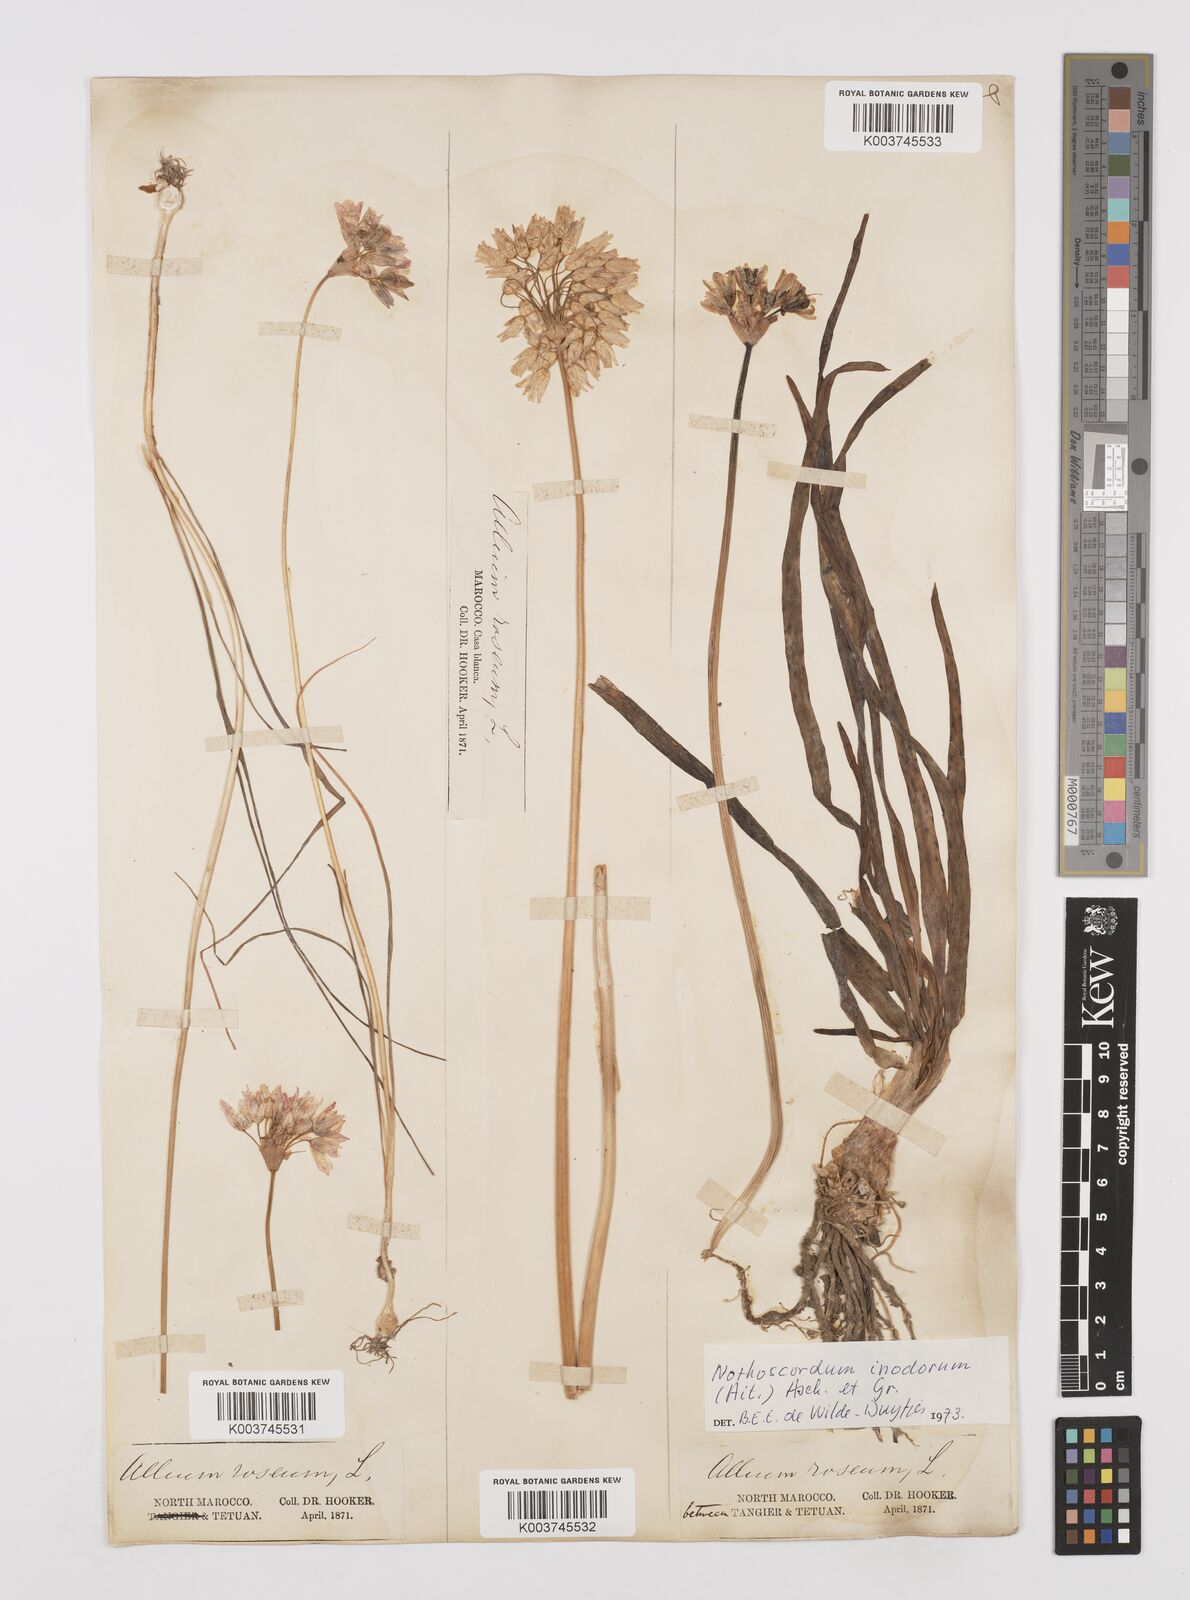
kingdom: Plantae
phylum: Tracheophyta
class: Liliopsida
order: Asparagales
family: Amaryllidaceae
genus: Allium
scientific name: Allium roseum
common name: Rosy garlic
